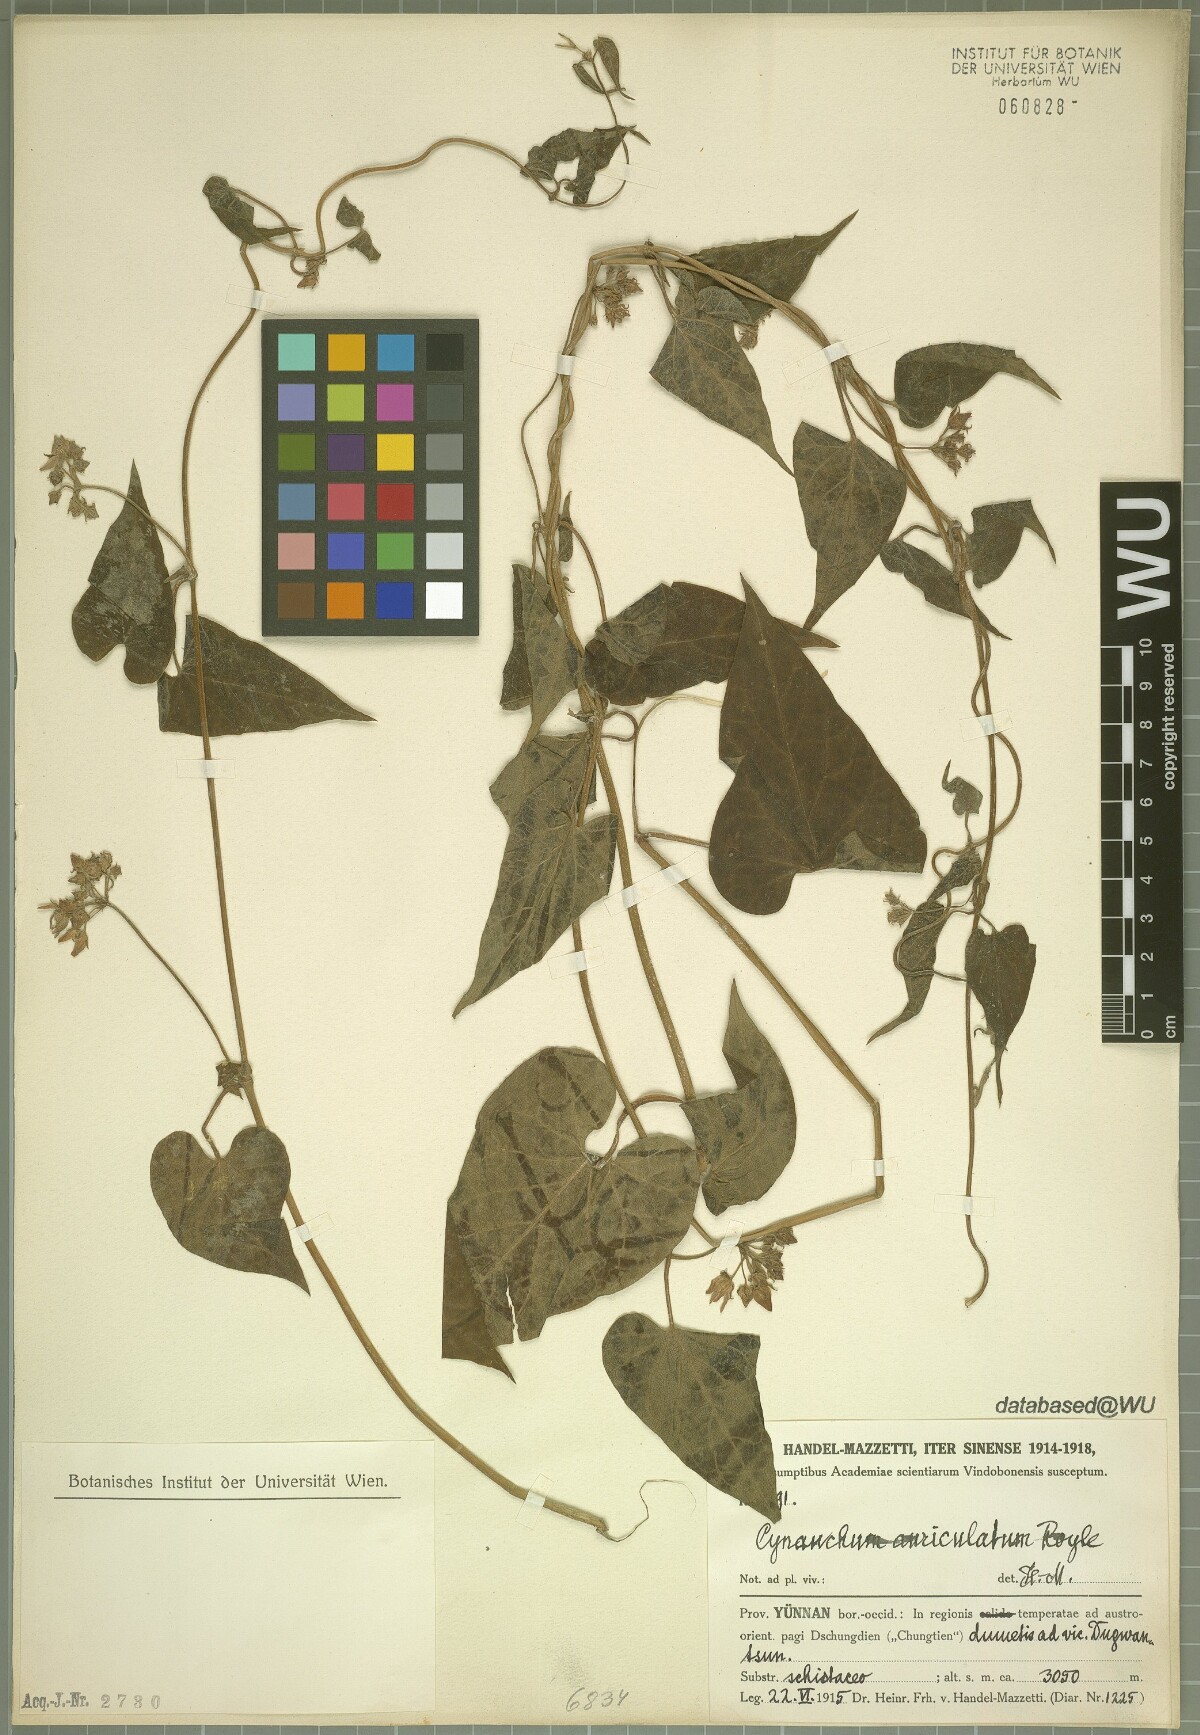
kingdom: Plantae
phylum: Tracheophyta
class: Magnoliopsida
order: Gentianales
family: Apocynaceae
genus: Cynanchum
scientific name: Cynanchum auriculatum
